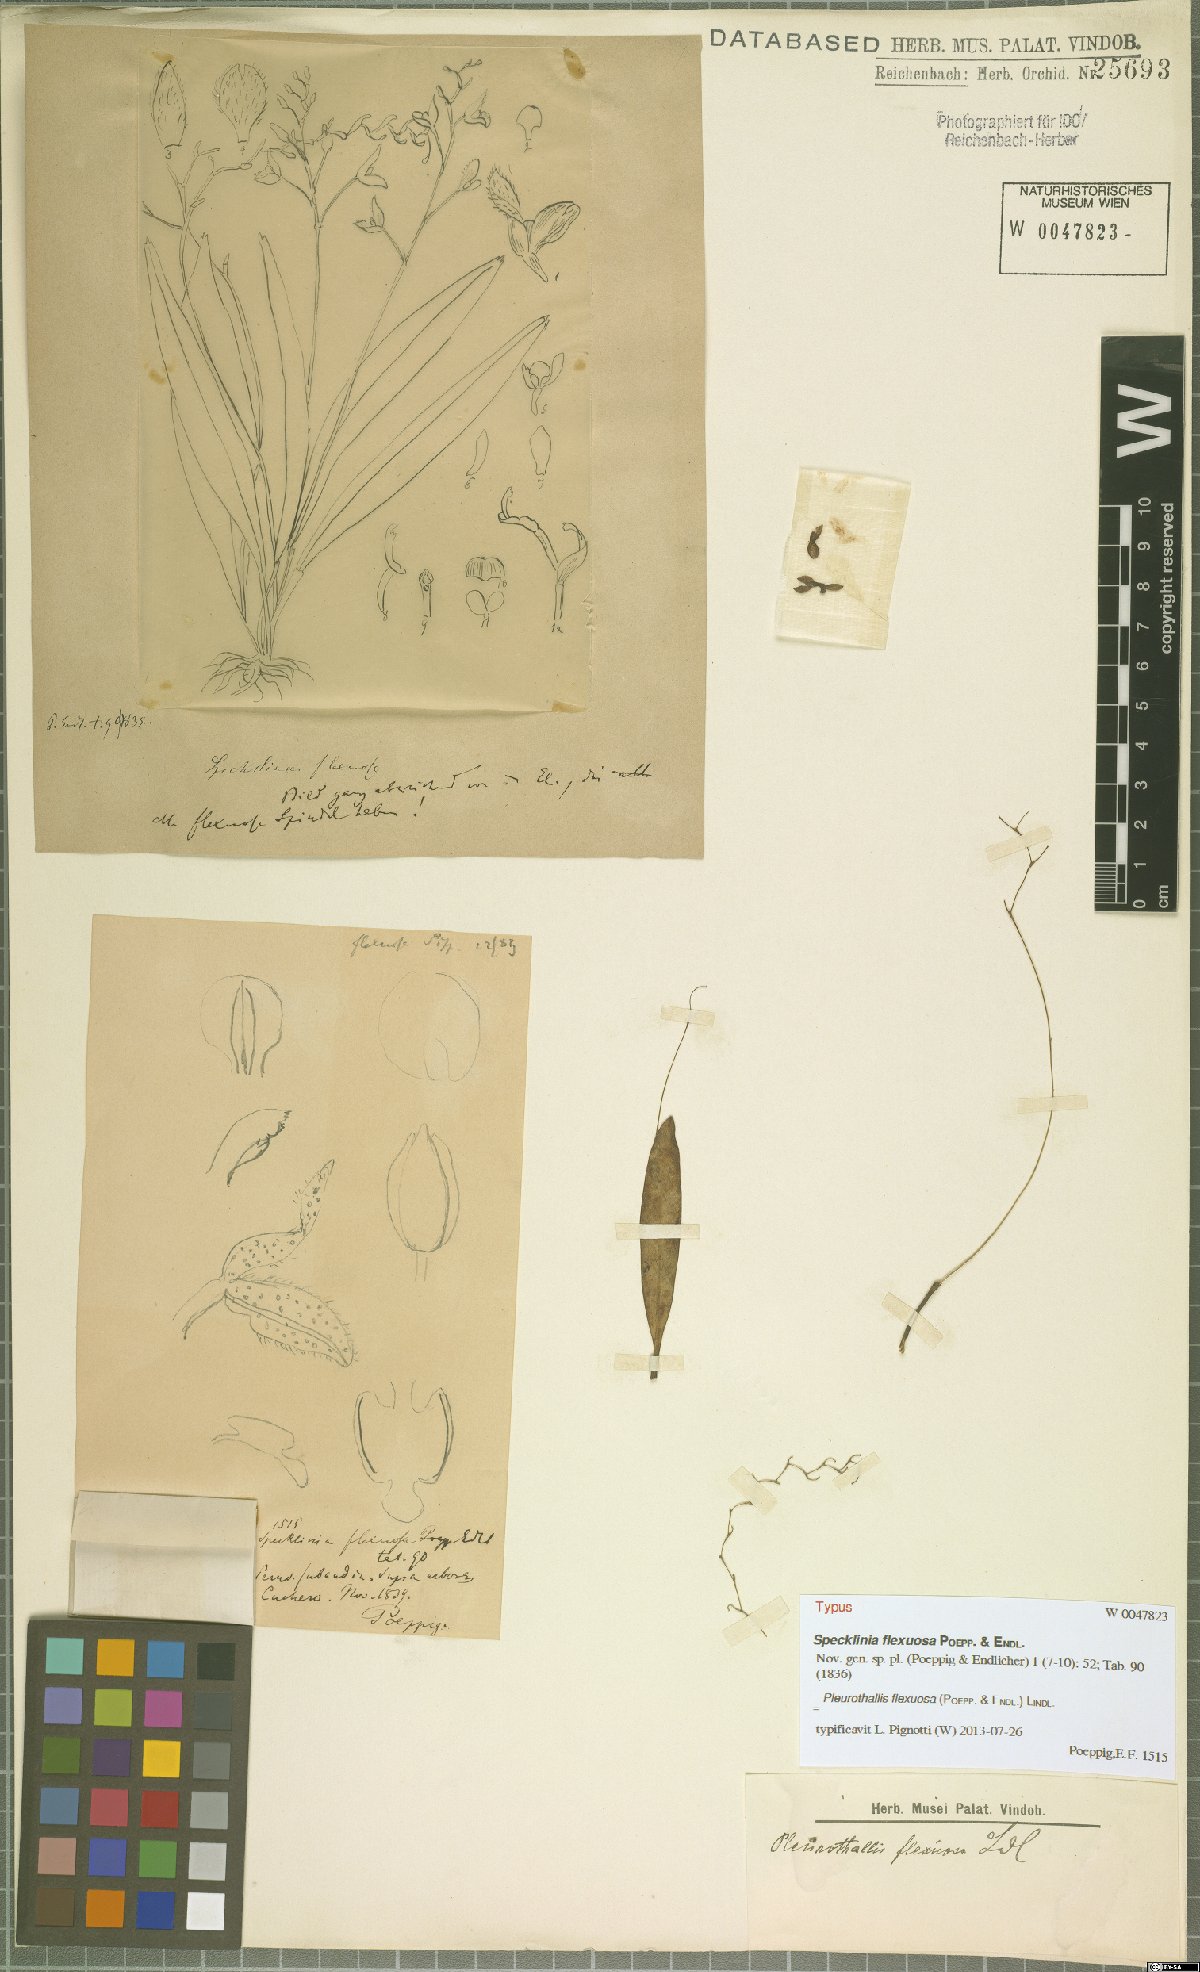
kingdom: Plantae
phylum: Tracheophyta
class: Liliopsida
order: Asparagales
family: Orchidaceae
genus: Stelis
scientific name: Stelis kefersteiniana
